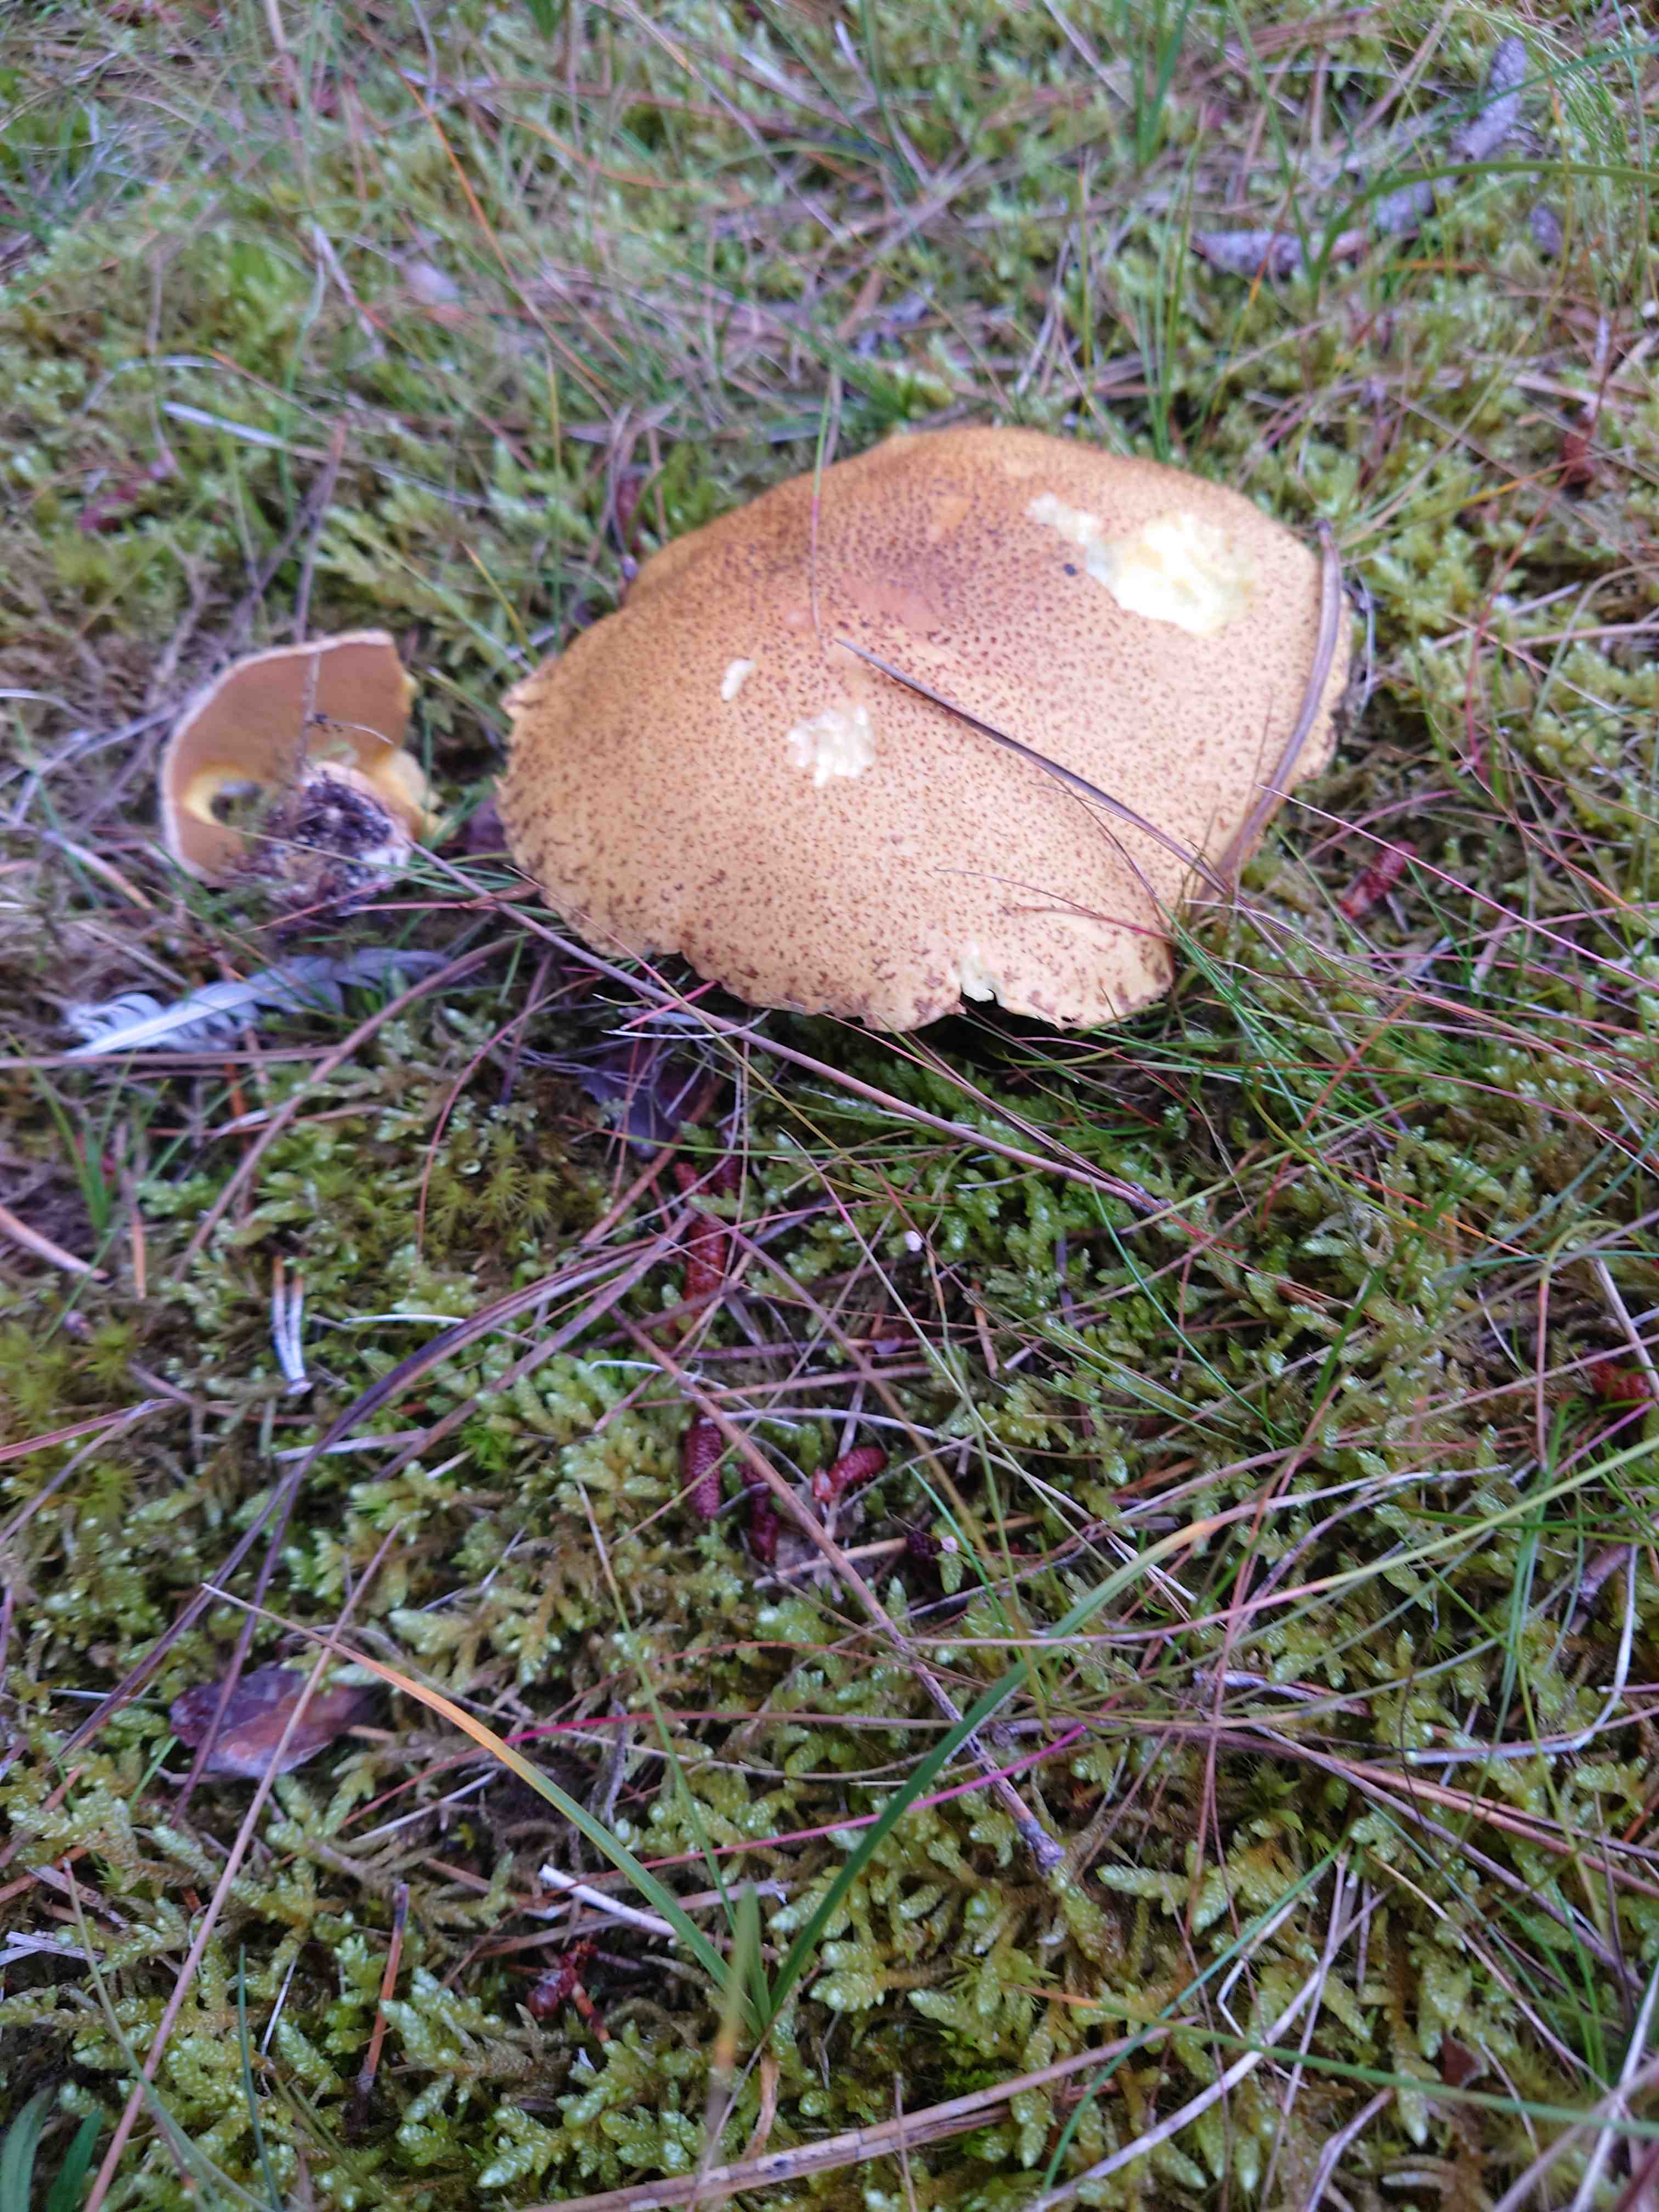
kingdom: Fungi
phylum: Basidiomycota
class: Agaricomycetes
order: Boletales
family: Suillaceae
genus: Suillus
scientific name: Suillus variegatus
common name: broget slimrørhat
